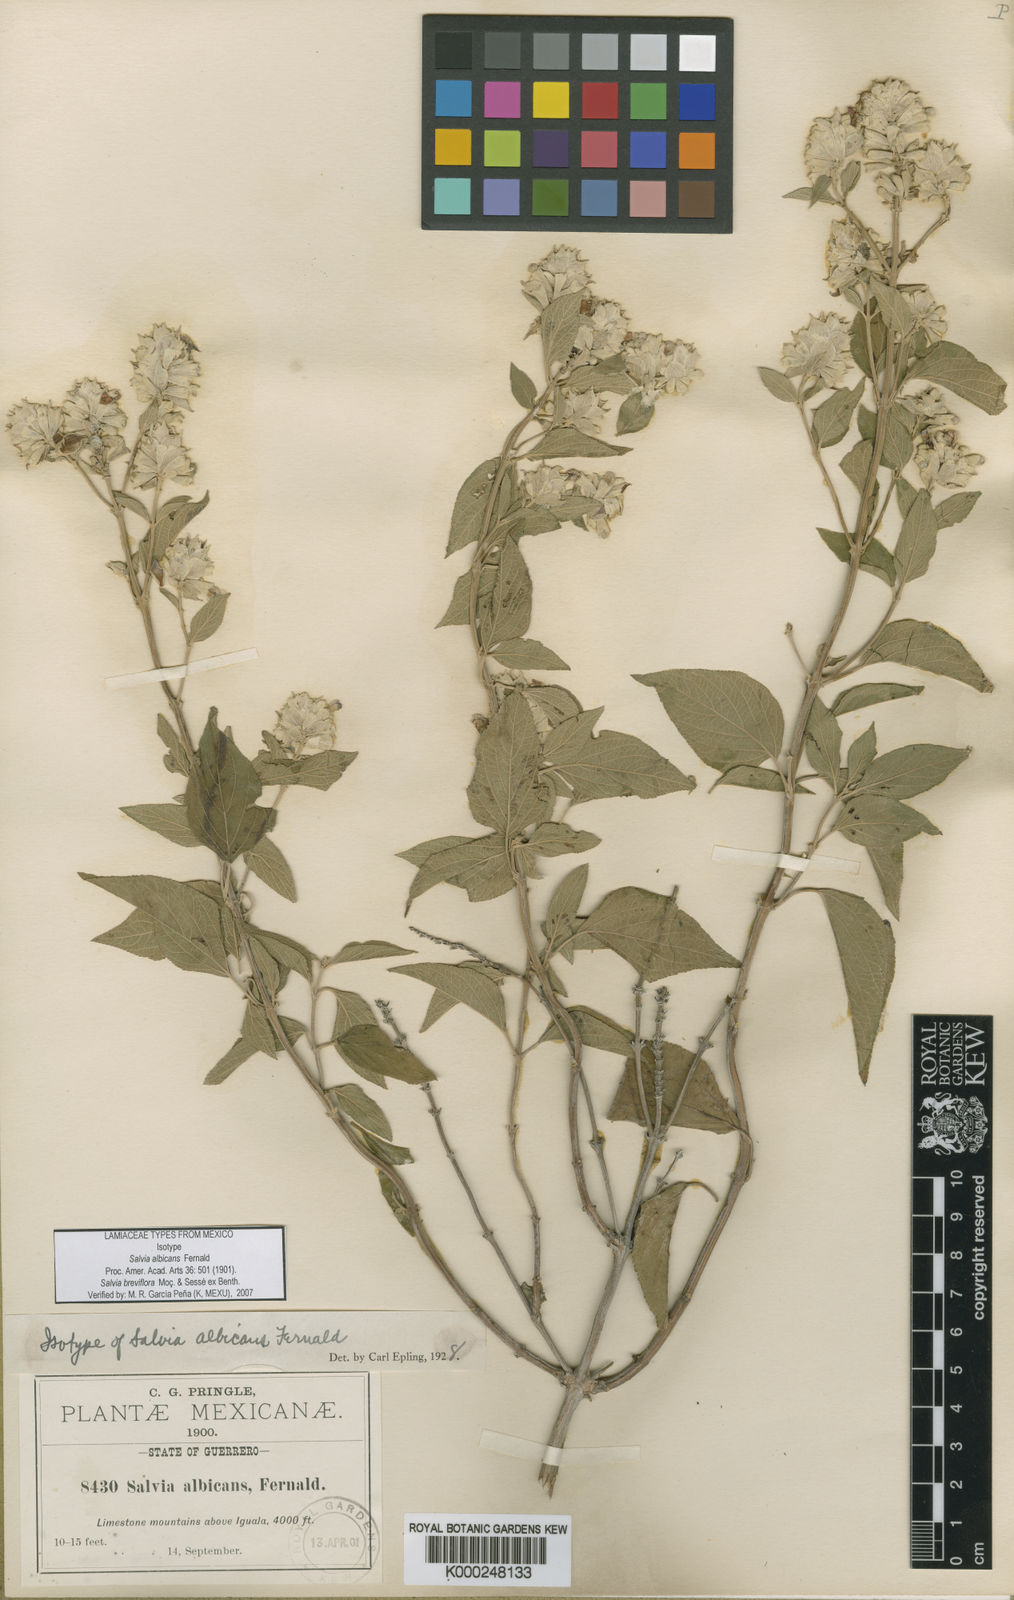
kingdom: Plantae
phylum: Tracheophyta
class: Magnoliopsida
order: Lamiales
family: Lamiaceae
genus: Salvia
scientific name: Salvia breviflora
